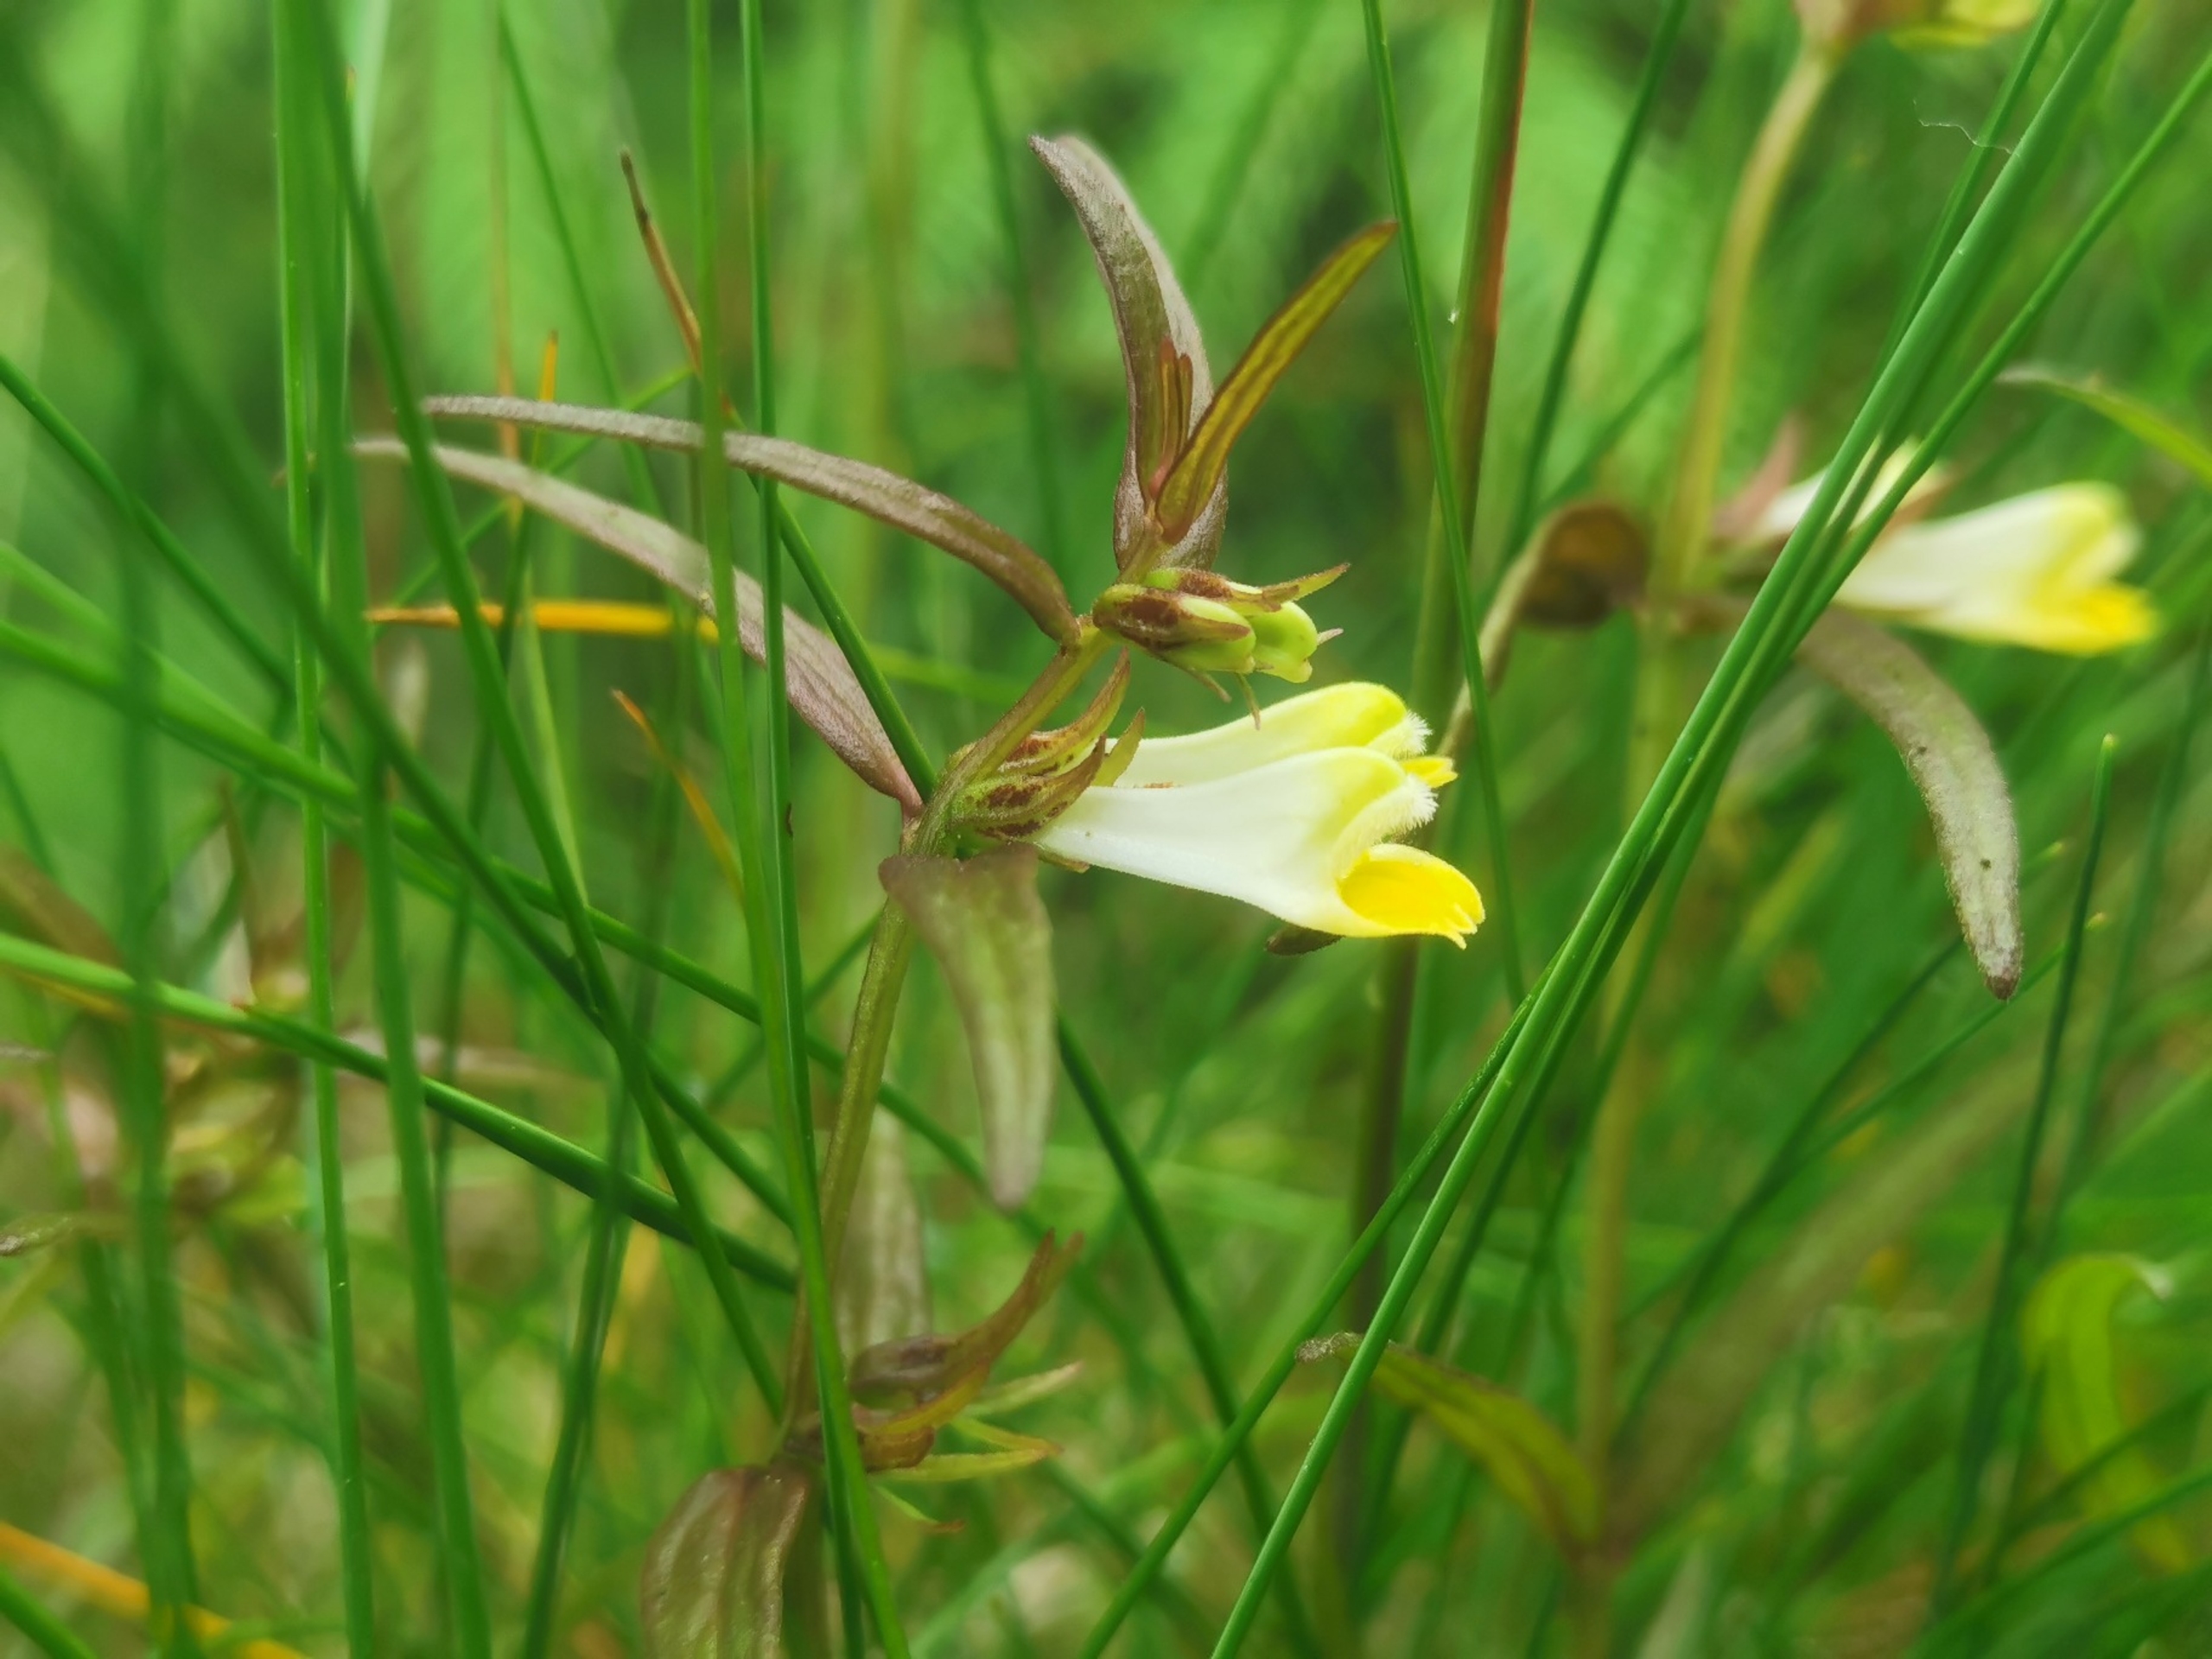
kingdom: Plantae
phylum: Tracheophyta
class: Magnoliopsida
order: Lamiales
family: Orobanchaceae
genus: Melampyrum
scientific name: Melampyrum pratense
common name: Almindelig kohvede
